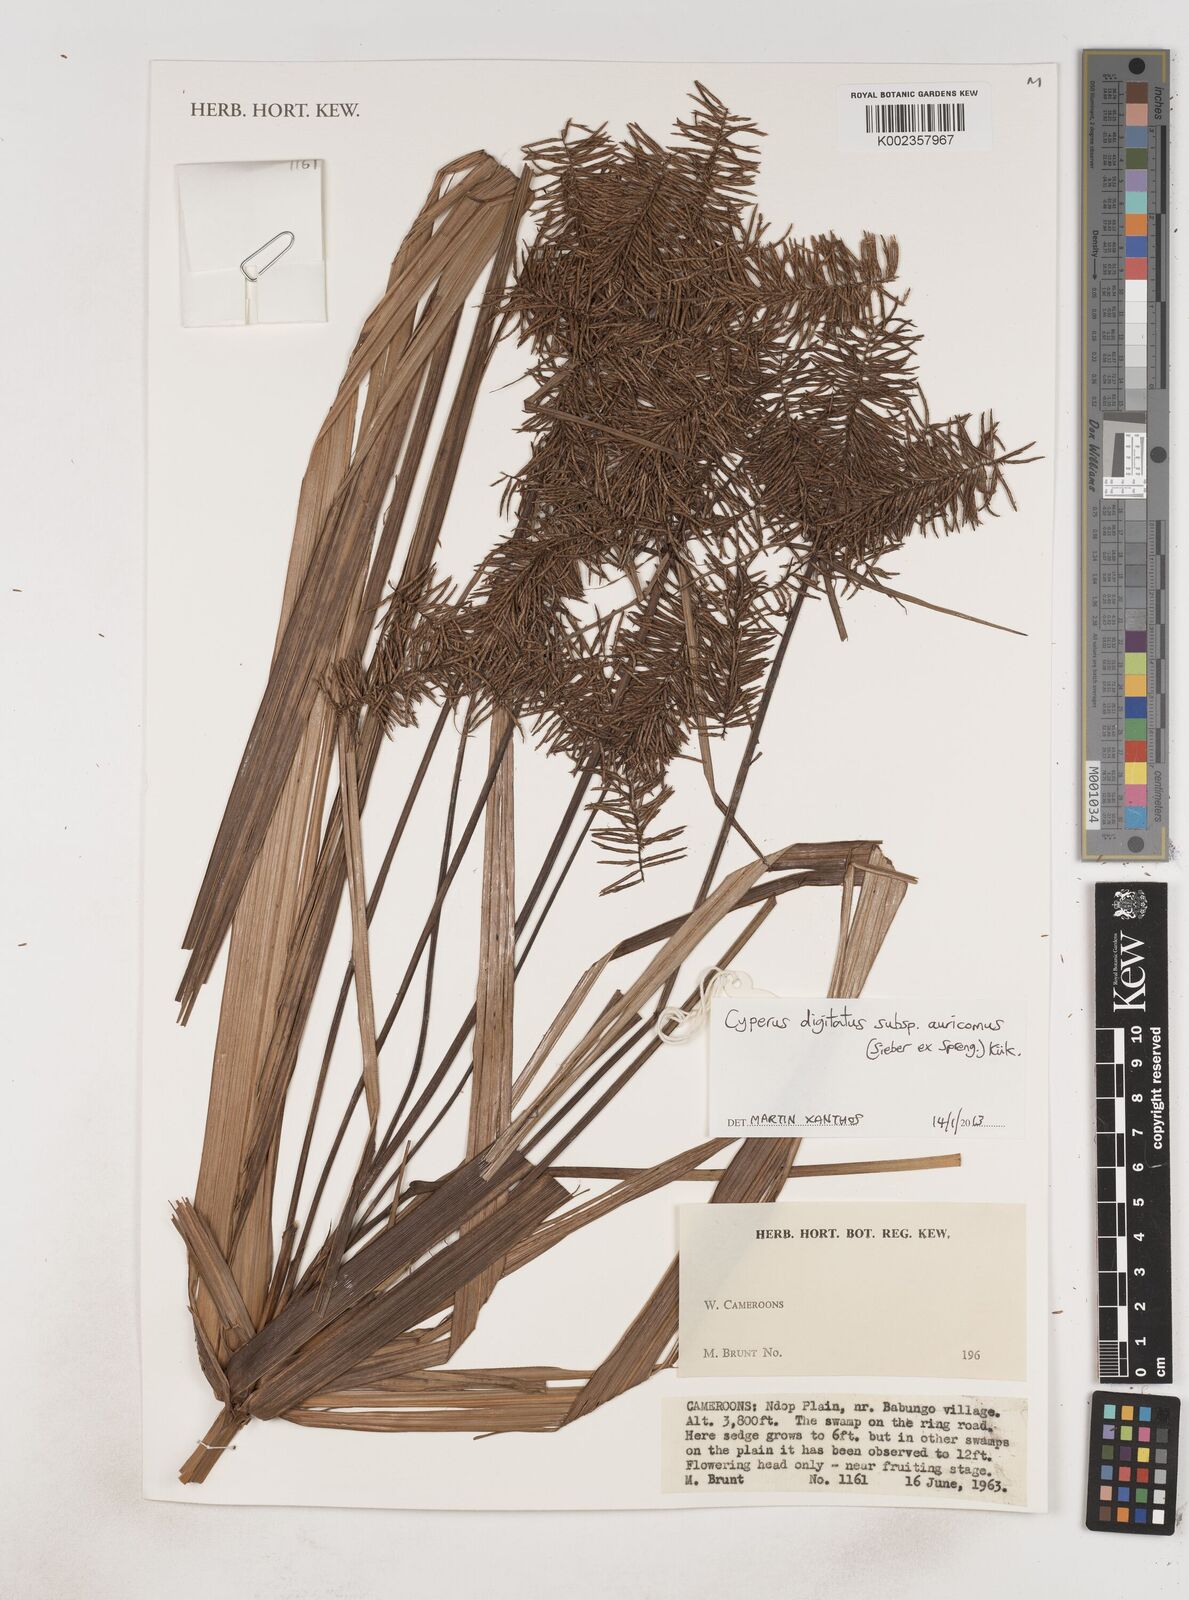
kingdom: Plantae
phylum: Tracheophyta
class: Liliopsida
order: Poales
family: Cyperaceae
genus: Cyperus
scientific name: Cyperus digitatus
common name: Finger flatsedge
